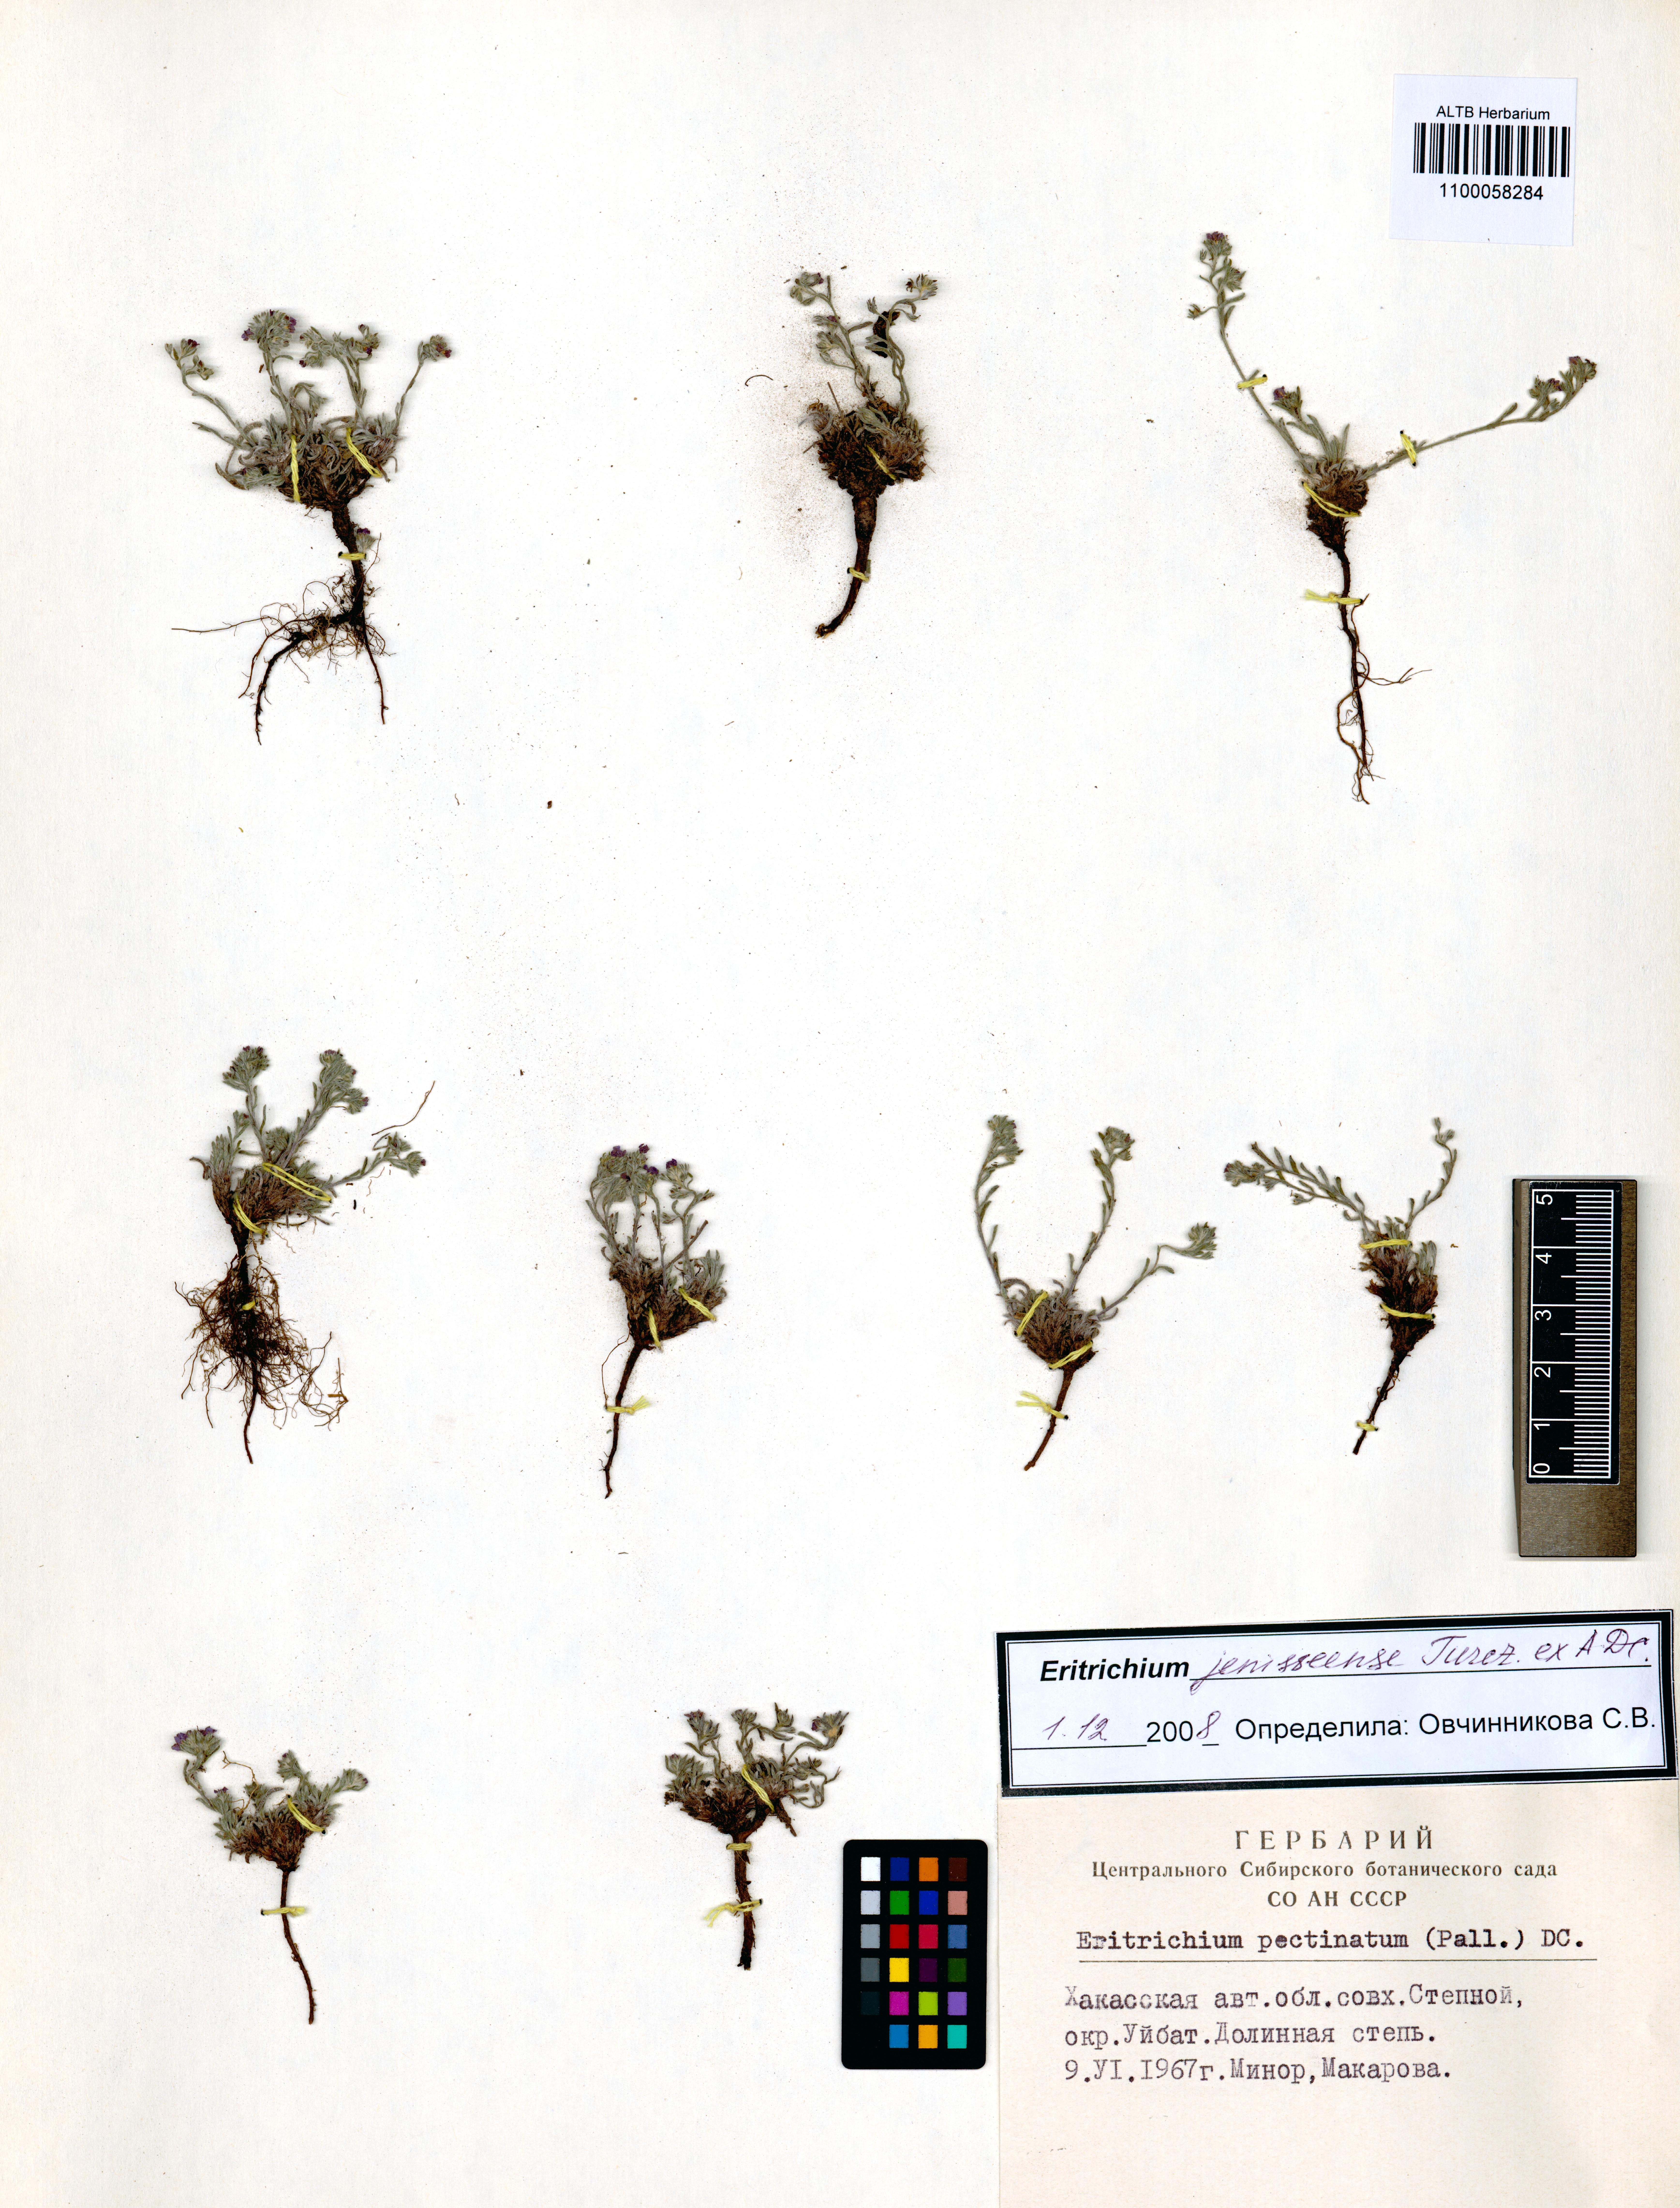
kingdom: Plantae
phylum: Tracheophyta
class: Magnoliopsida
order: Boraginales
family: Boraginaceae
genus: Eritrichium
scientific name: Eritrichium jenisseense
